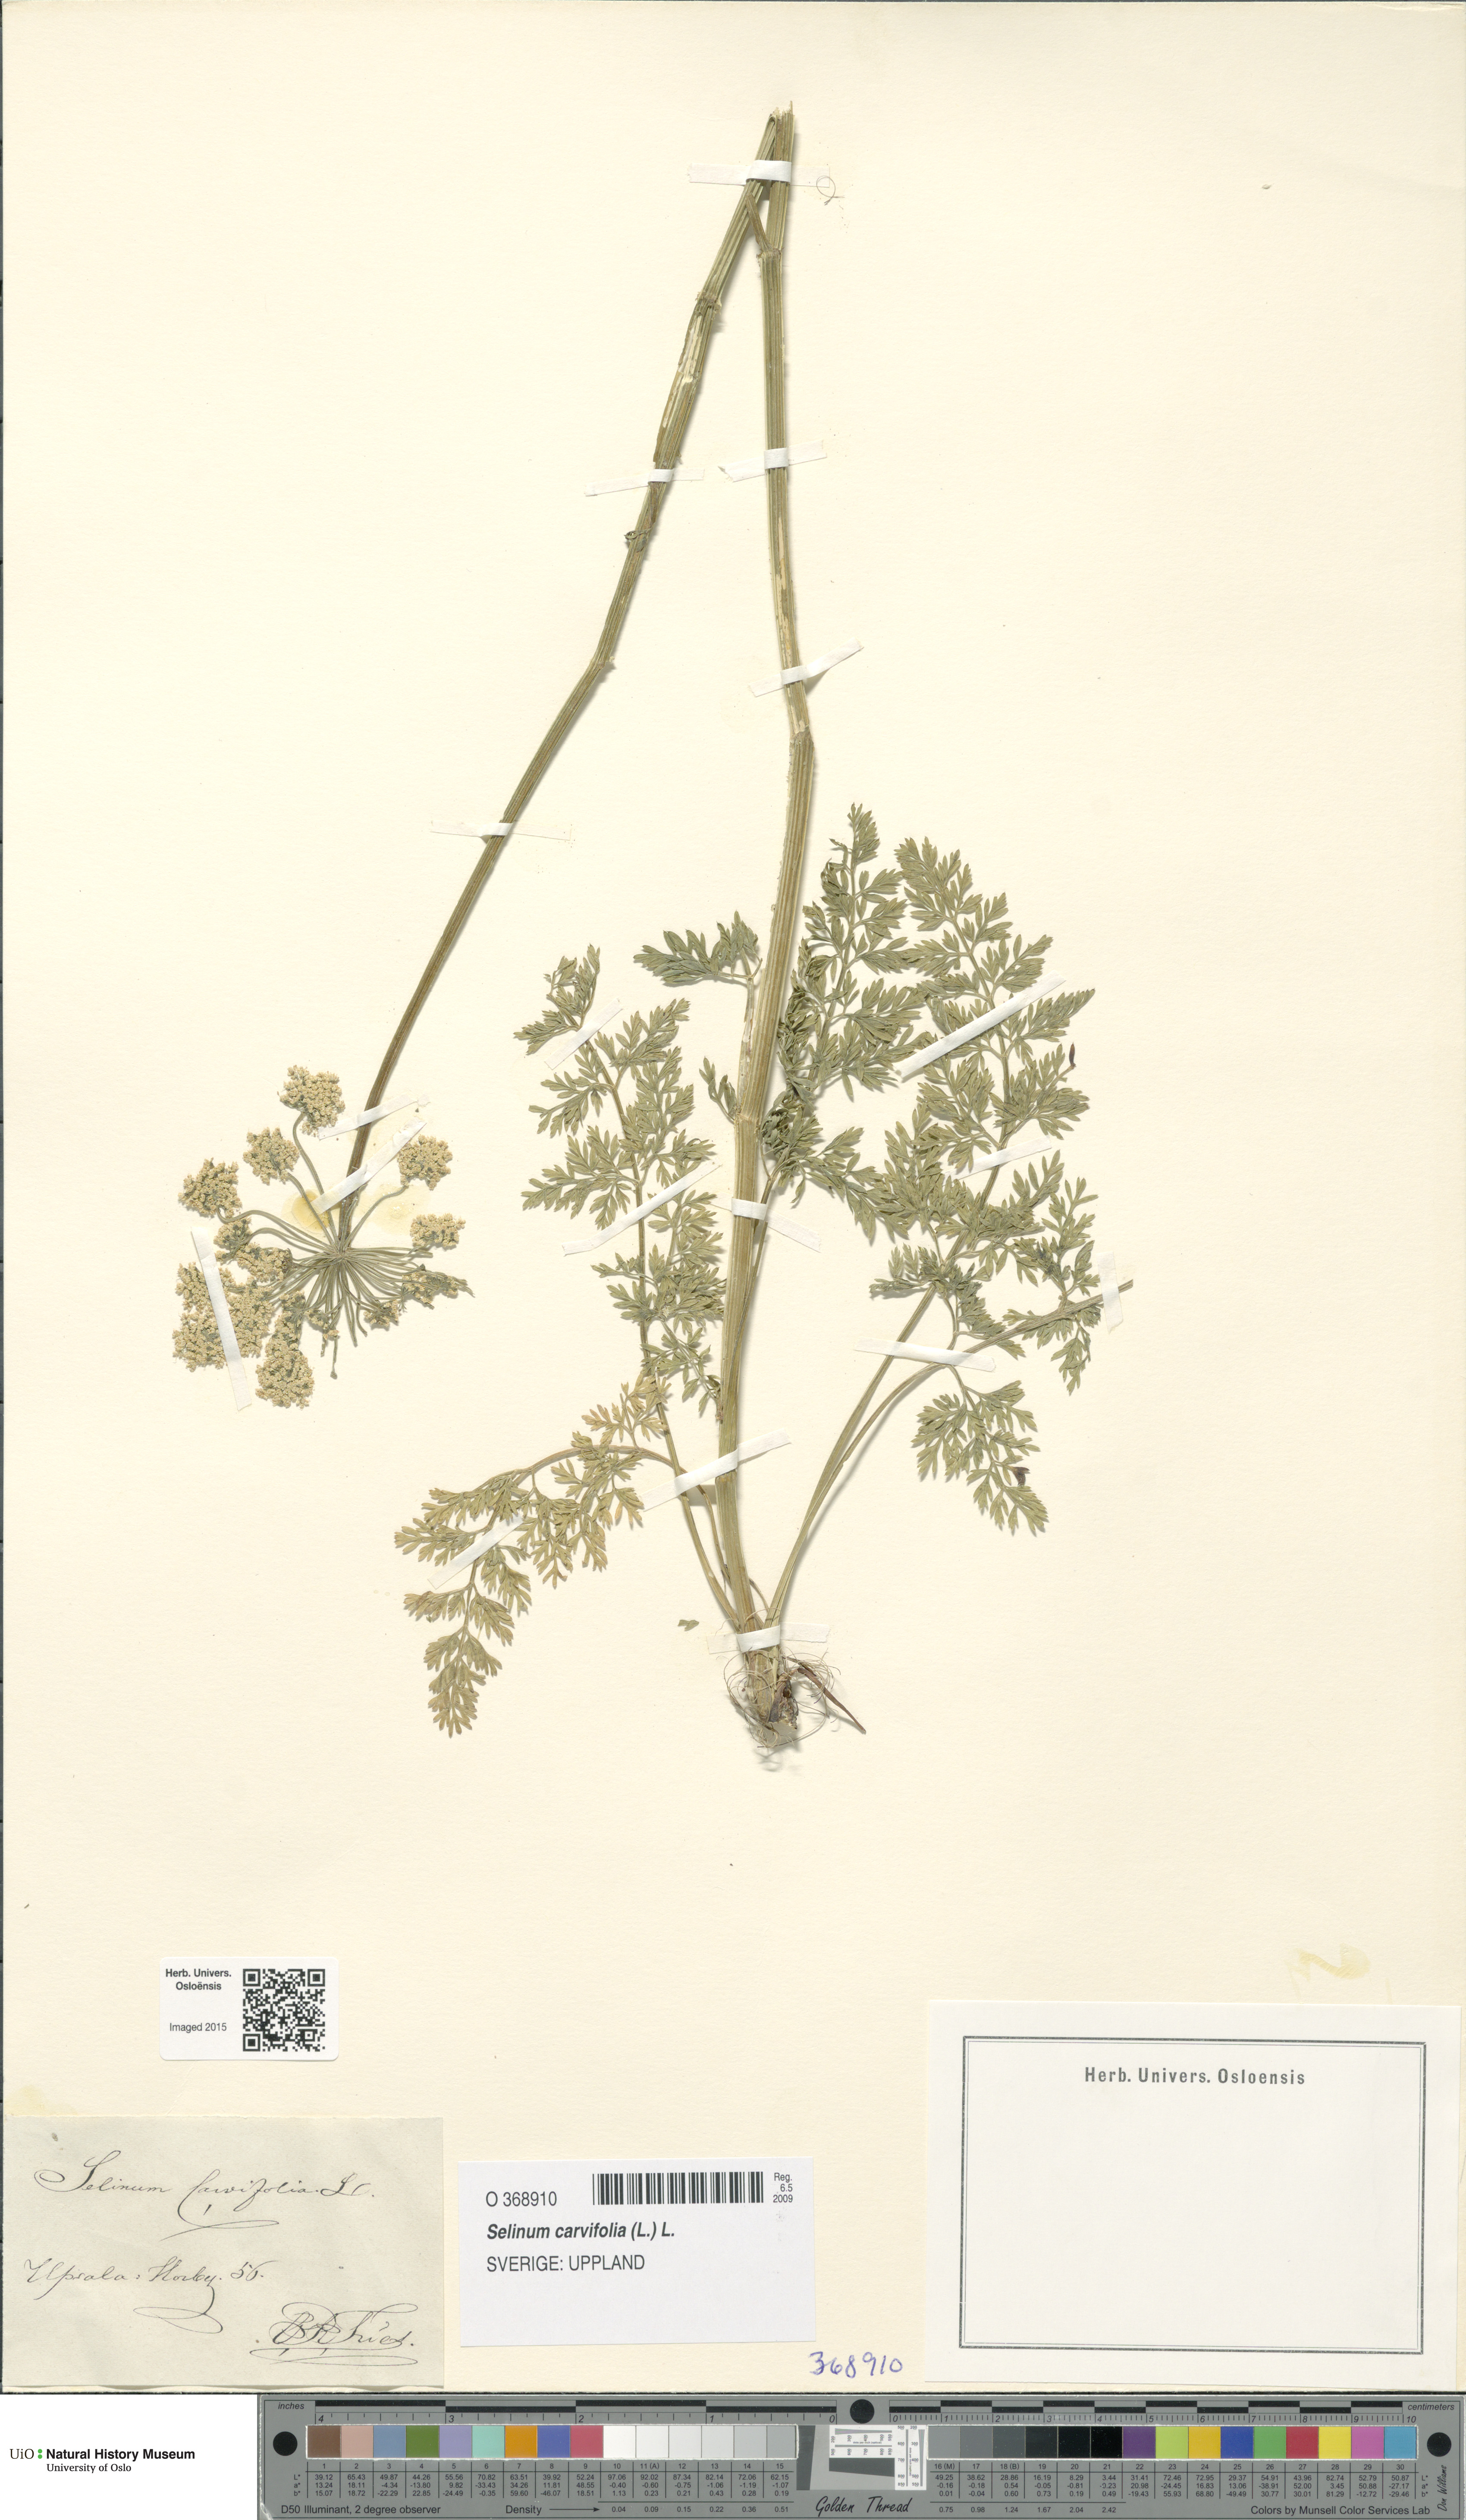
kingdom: Plantae
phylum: Tracheophyta
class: Magnoliopsida
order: Apiales
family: Apiaceae
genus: Selinum
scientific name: Selinum carvifolia
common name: Cambridge milk-parsley
